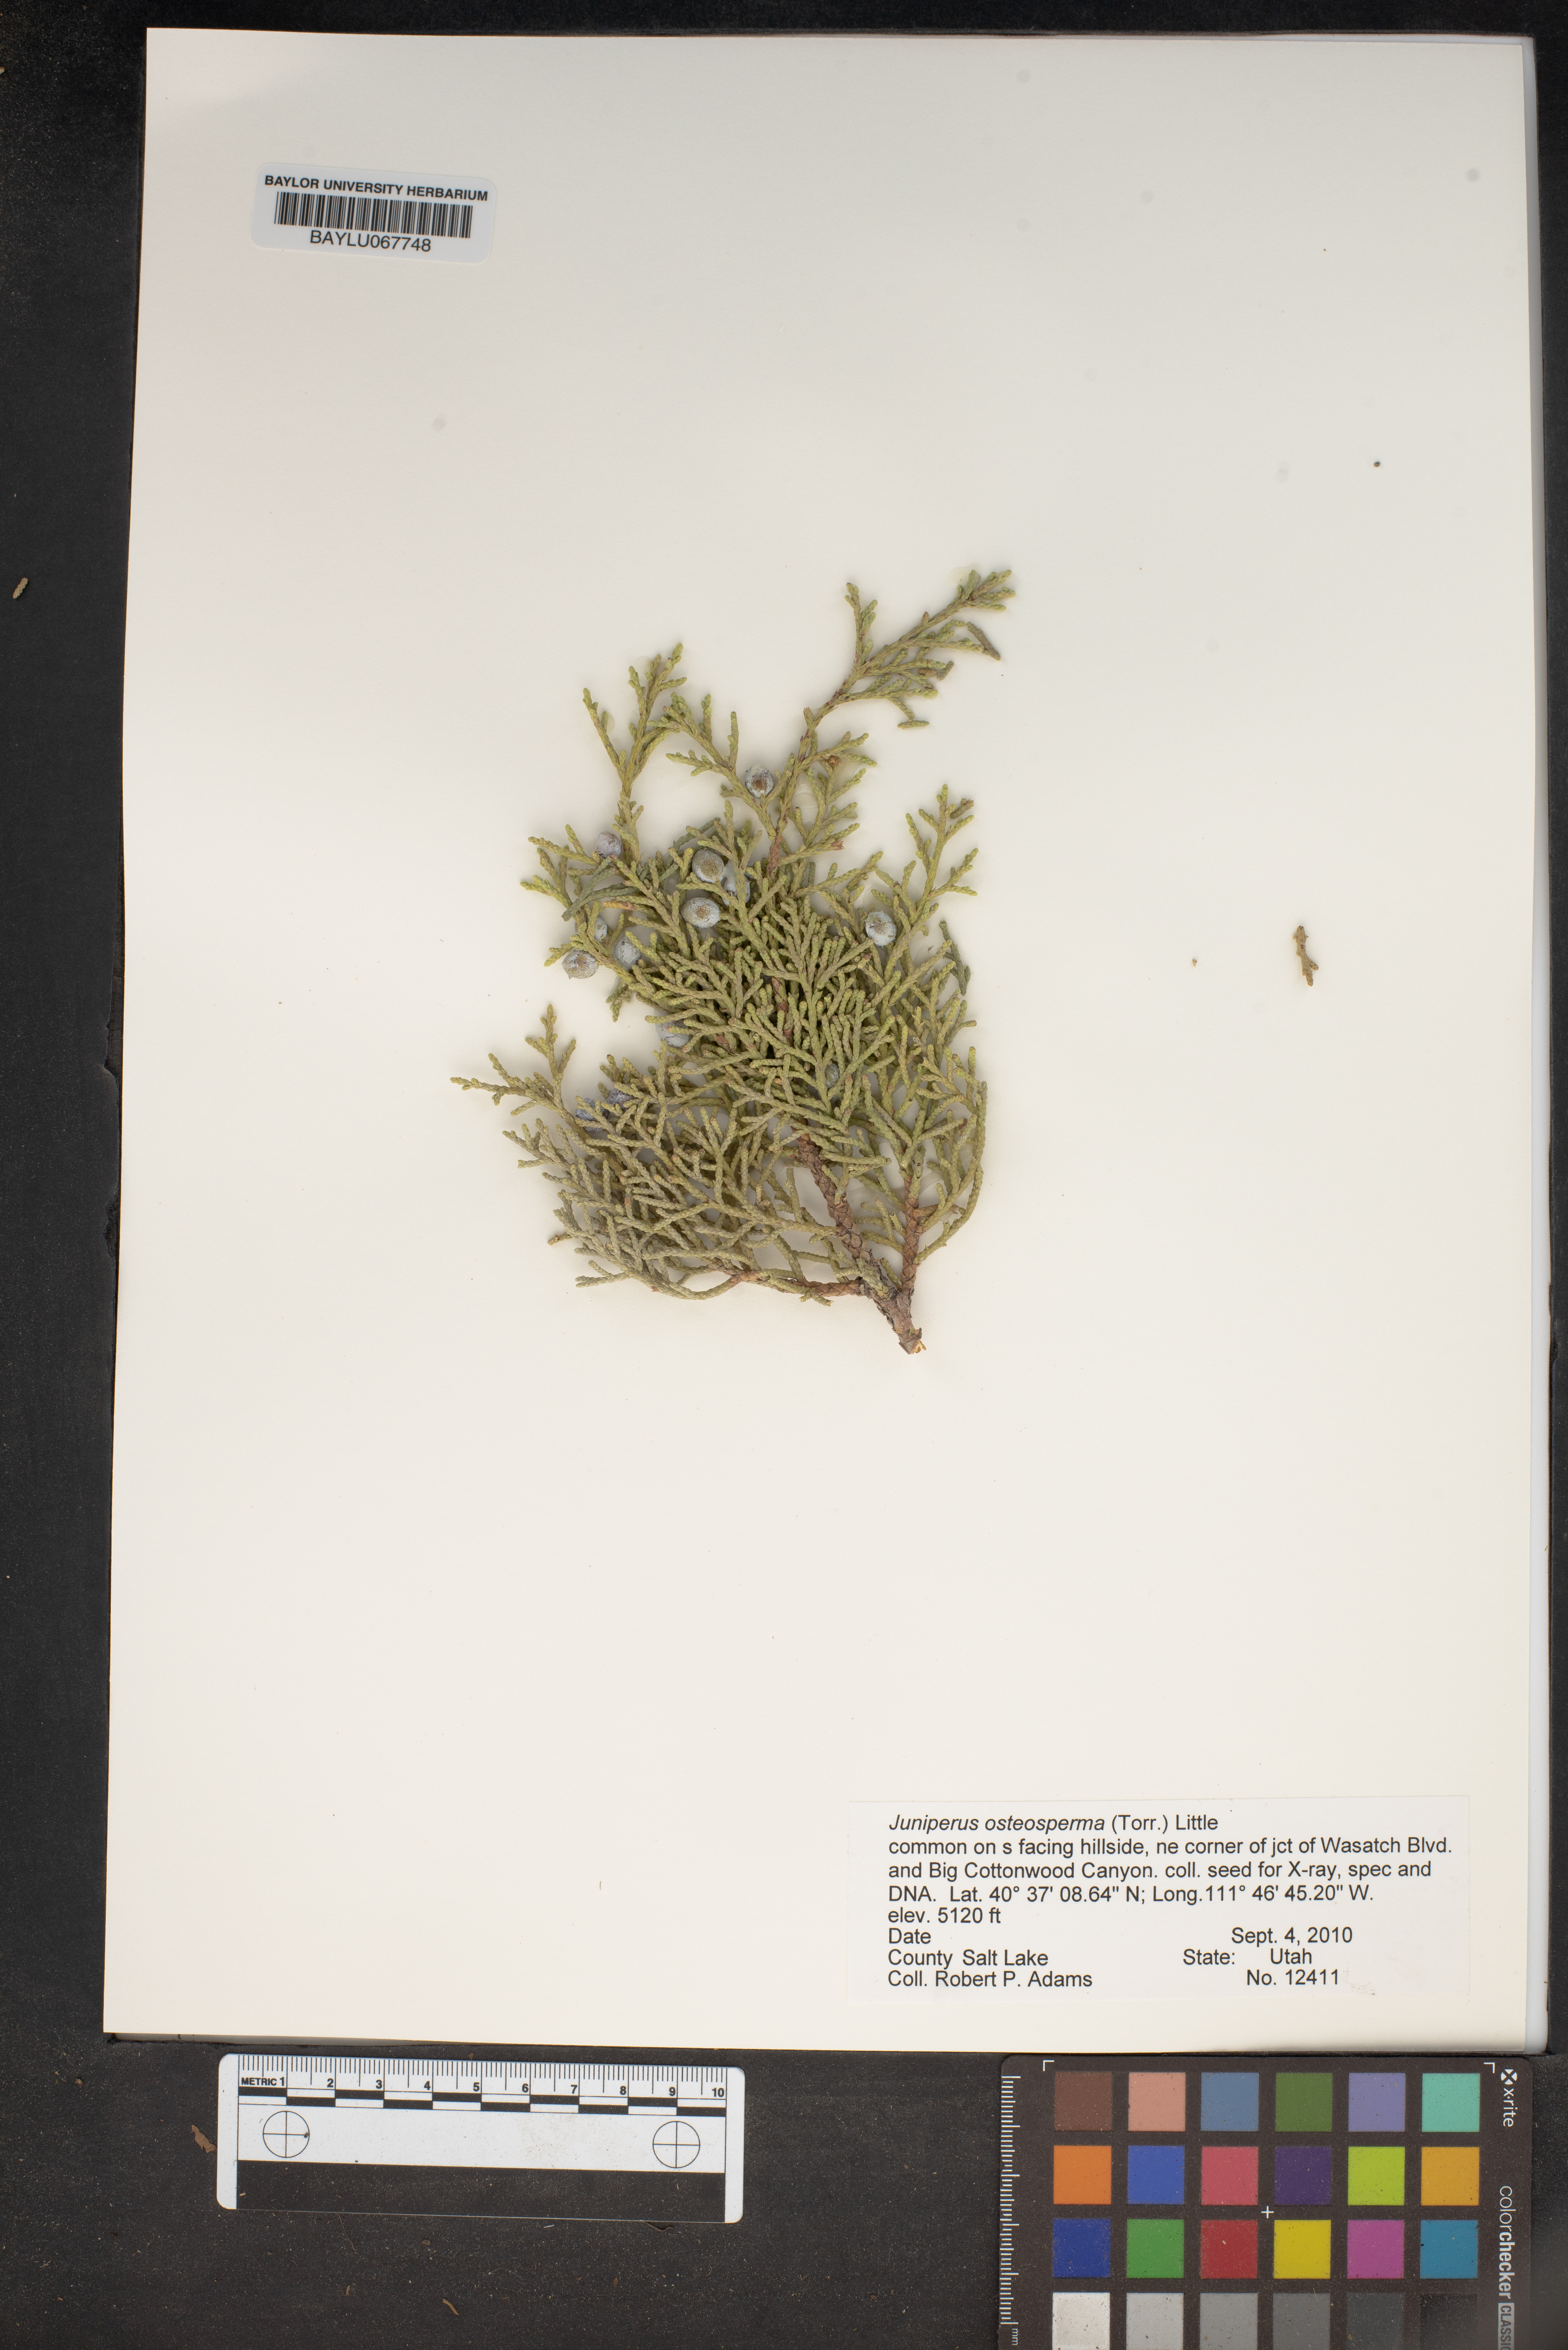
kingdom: Plantae
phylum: Tracheophyta
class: Pinopsida
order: Pinales
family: Cupressaceae
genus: Juniperus
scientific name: Juniperus osteosperma
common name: Utah juniper
